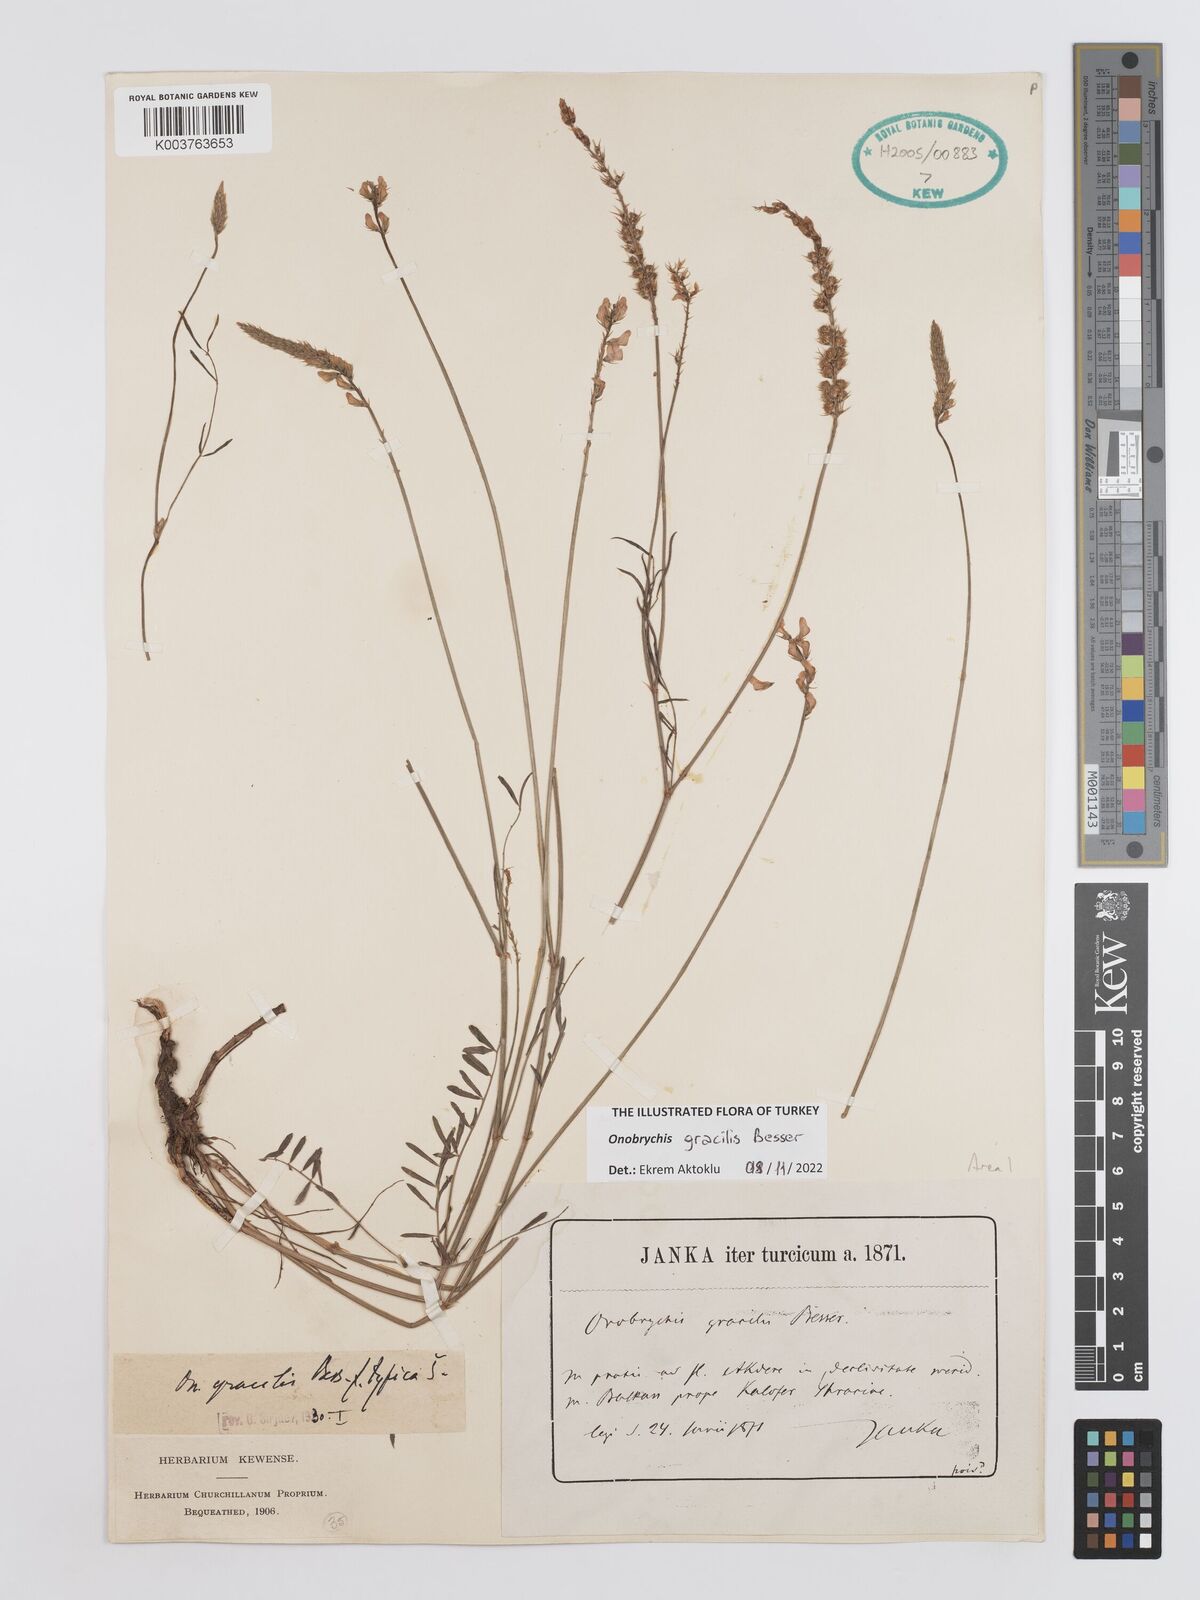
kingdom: Plantae
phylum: Tracheophyta
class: Magnoliopsida
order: Fabales
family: Fabaceae
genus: Onobrychis
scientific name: Onobrychis gracilis
